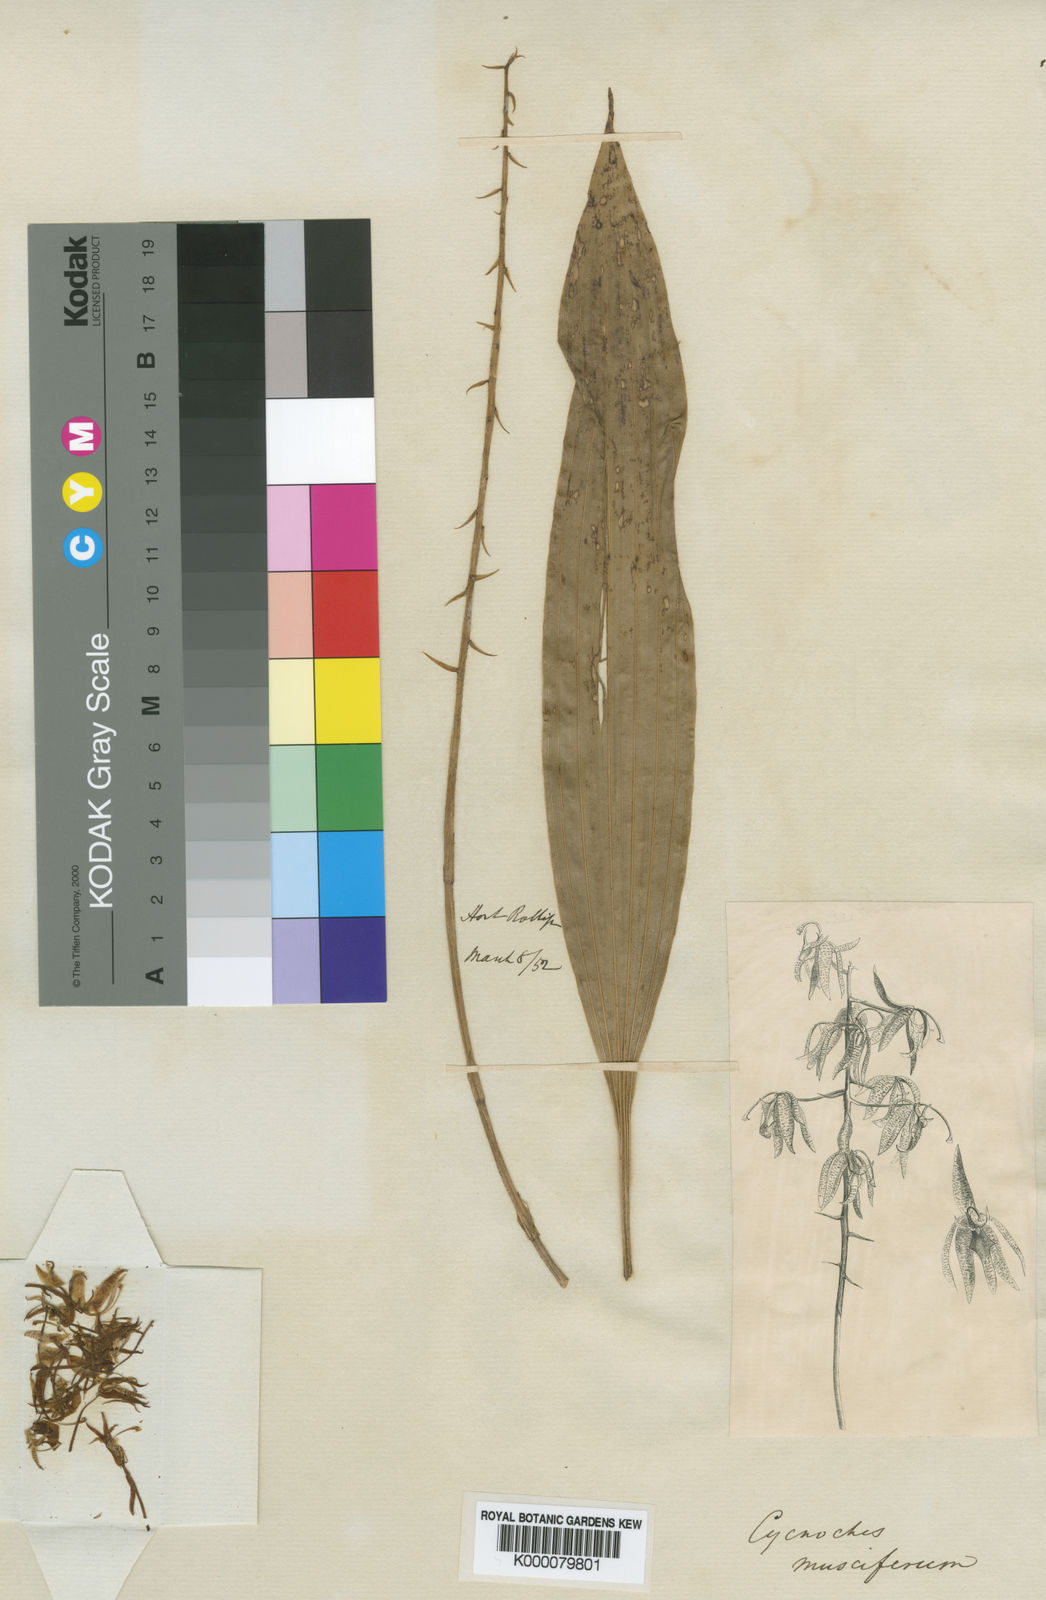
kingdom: Plantae
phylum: Tracheophyta
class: Liliopsida
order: Asparagales
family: Orchidaceae
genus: Polycycnis
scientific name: Polycycnis muscifera
